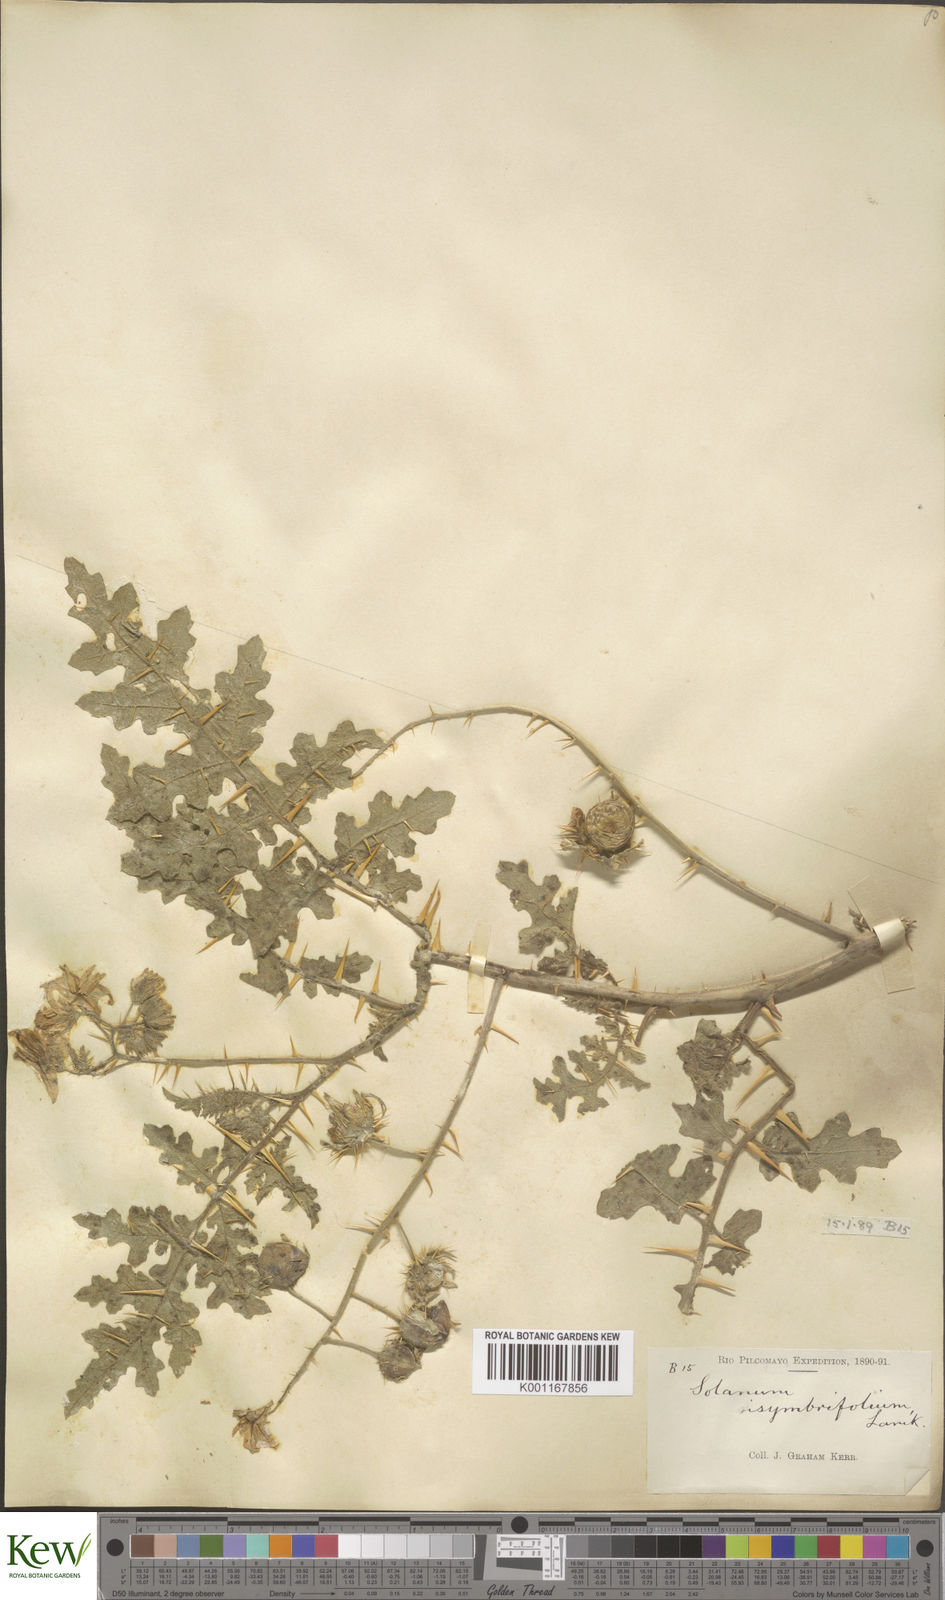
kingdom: Plantae
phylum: Tracheophyta
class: Magnoliopsida
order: Solanales
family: Solanaceae
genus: Solanum
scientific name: Solanum sisymbriifolium
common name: Red buffalo-bur
